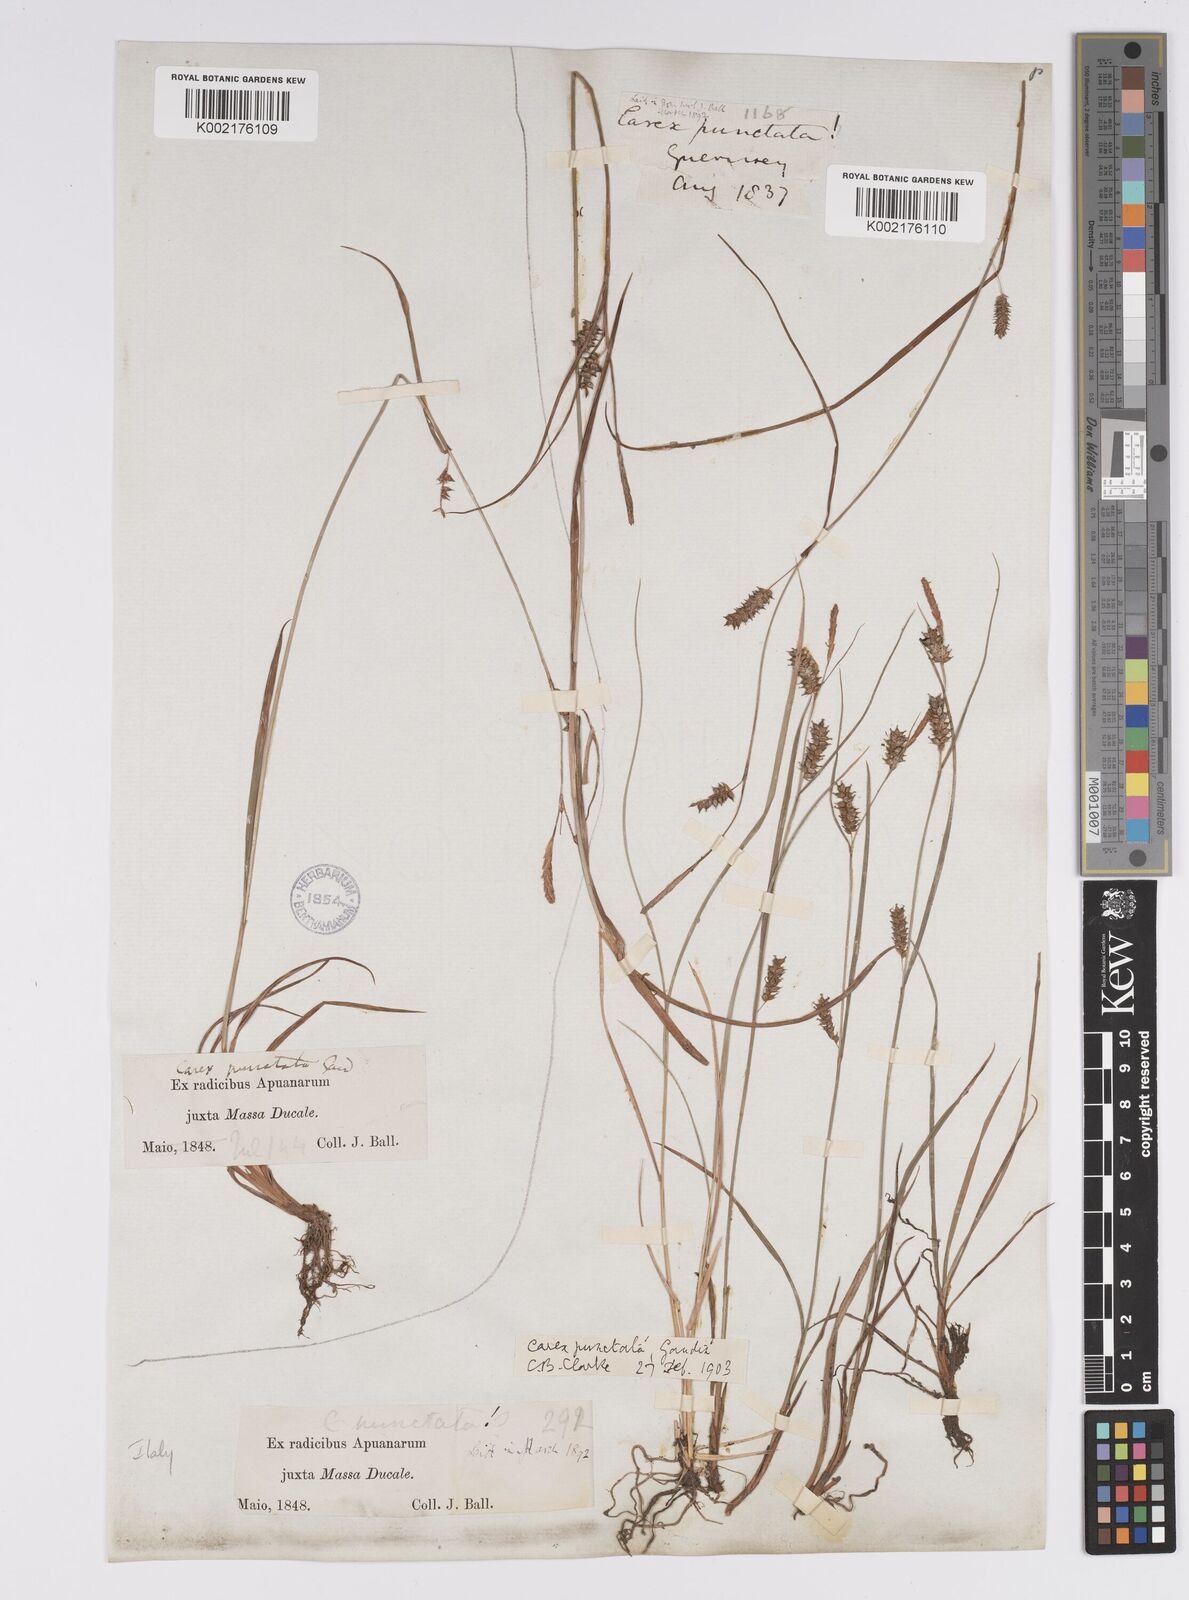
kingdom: Plantae
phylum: Tracheophyta
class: Liliopsida
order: Poales
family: Cyperaceae
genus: Carex
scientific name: Carex punctata
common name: Dotted sedge
